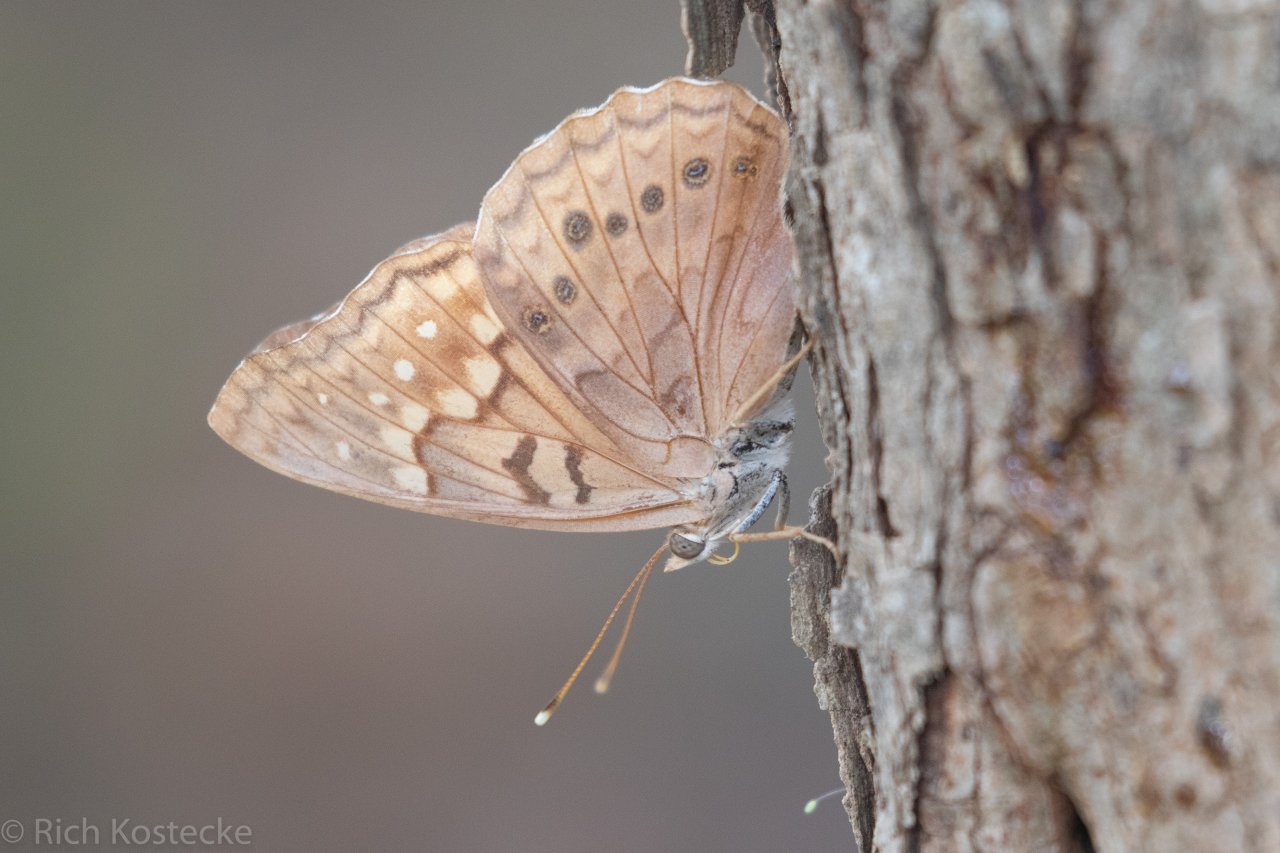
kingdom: Animalia
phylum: Arthropoda
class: Insecta
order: Lepidoptera
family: Nymphalidae
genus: Asterocampa
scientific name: Asterocampa clyton
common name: Tawny Emperor
